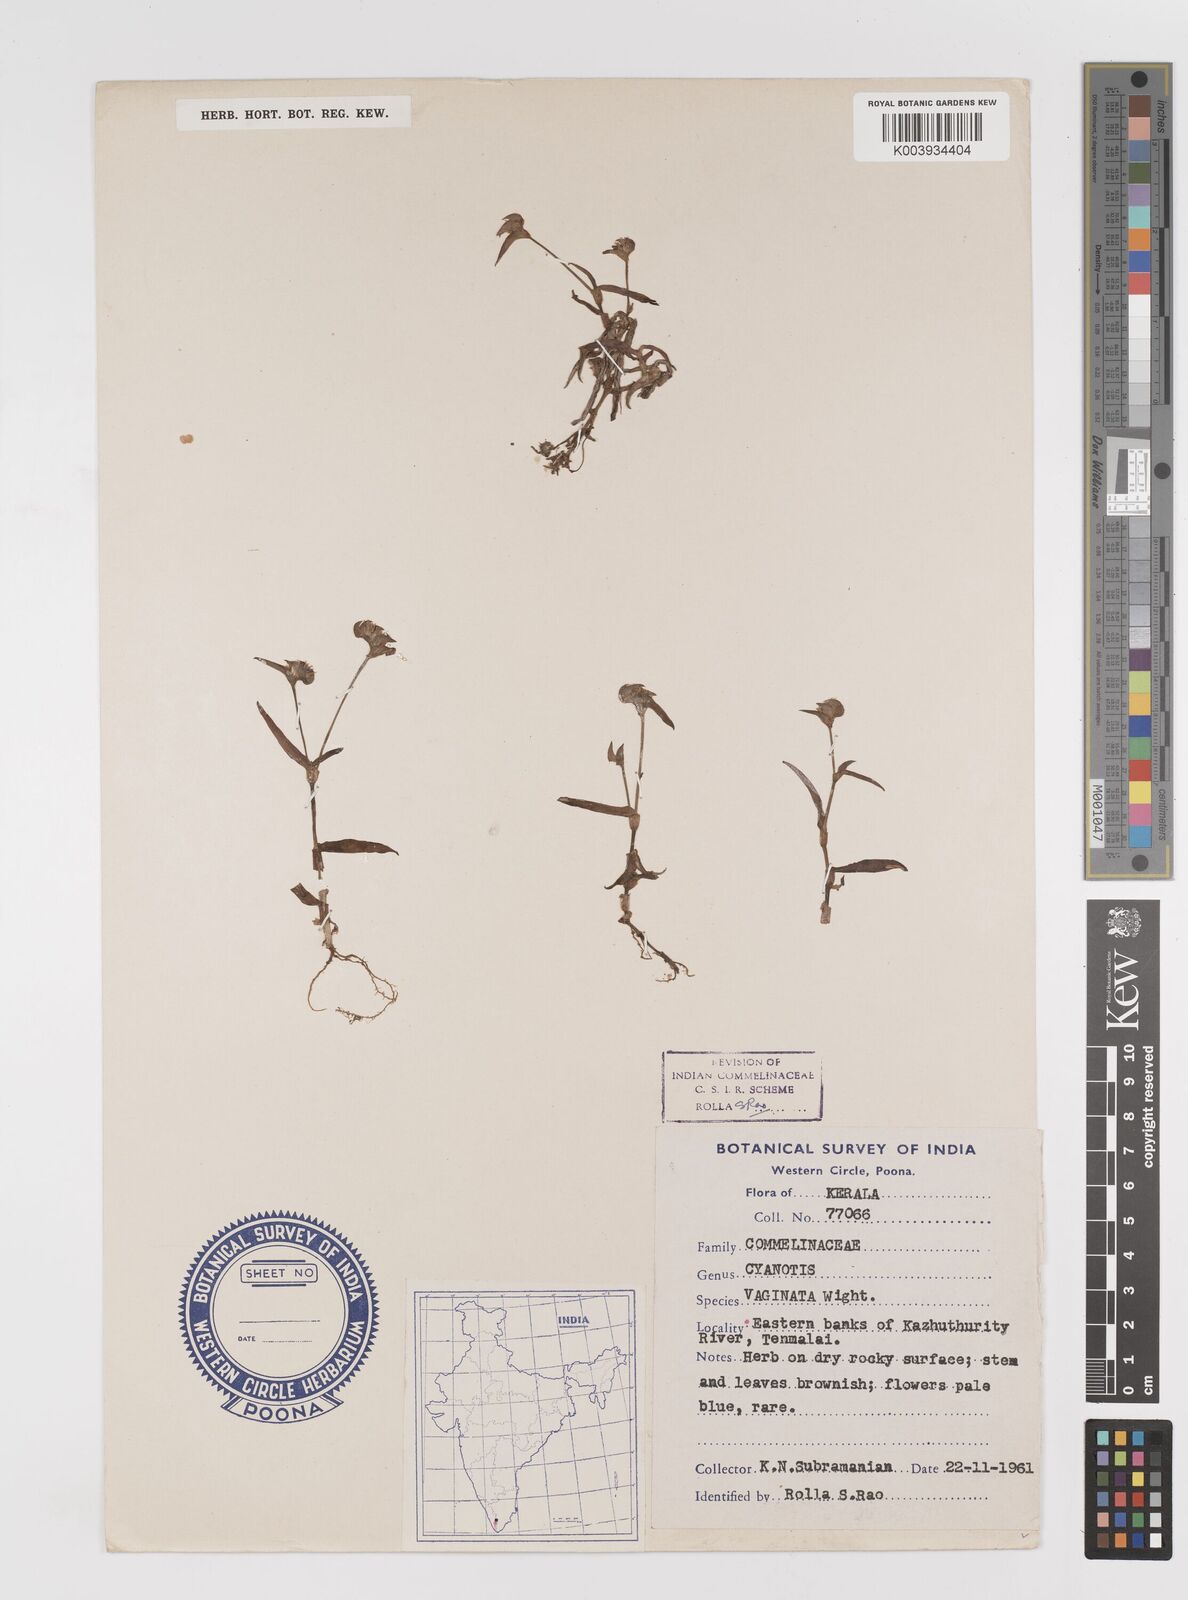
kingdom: Plantae
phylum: Tracheophyta
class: Liliopsida
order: Commelinales
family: Commelinaceae
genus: Cyanotis
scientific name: Cyanotis burmanniana
